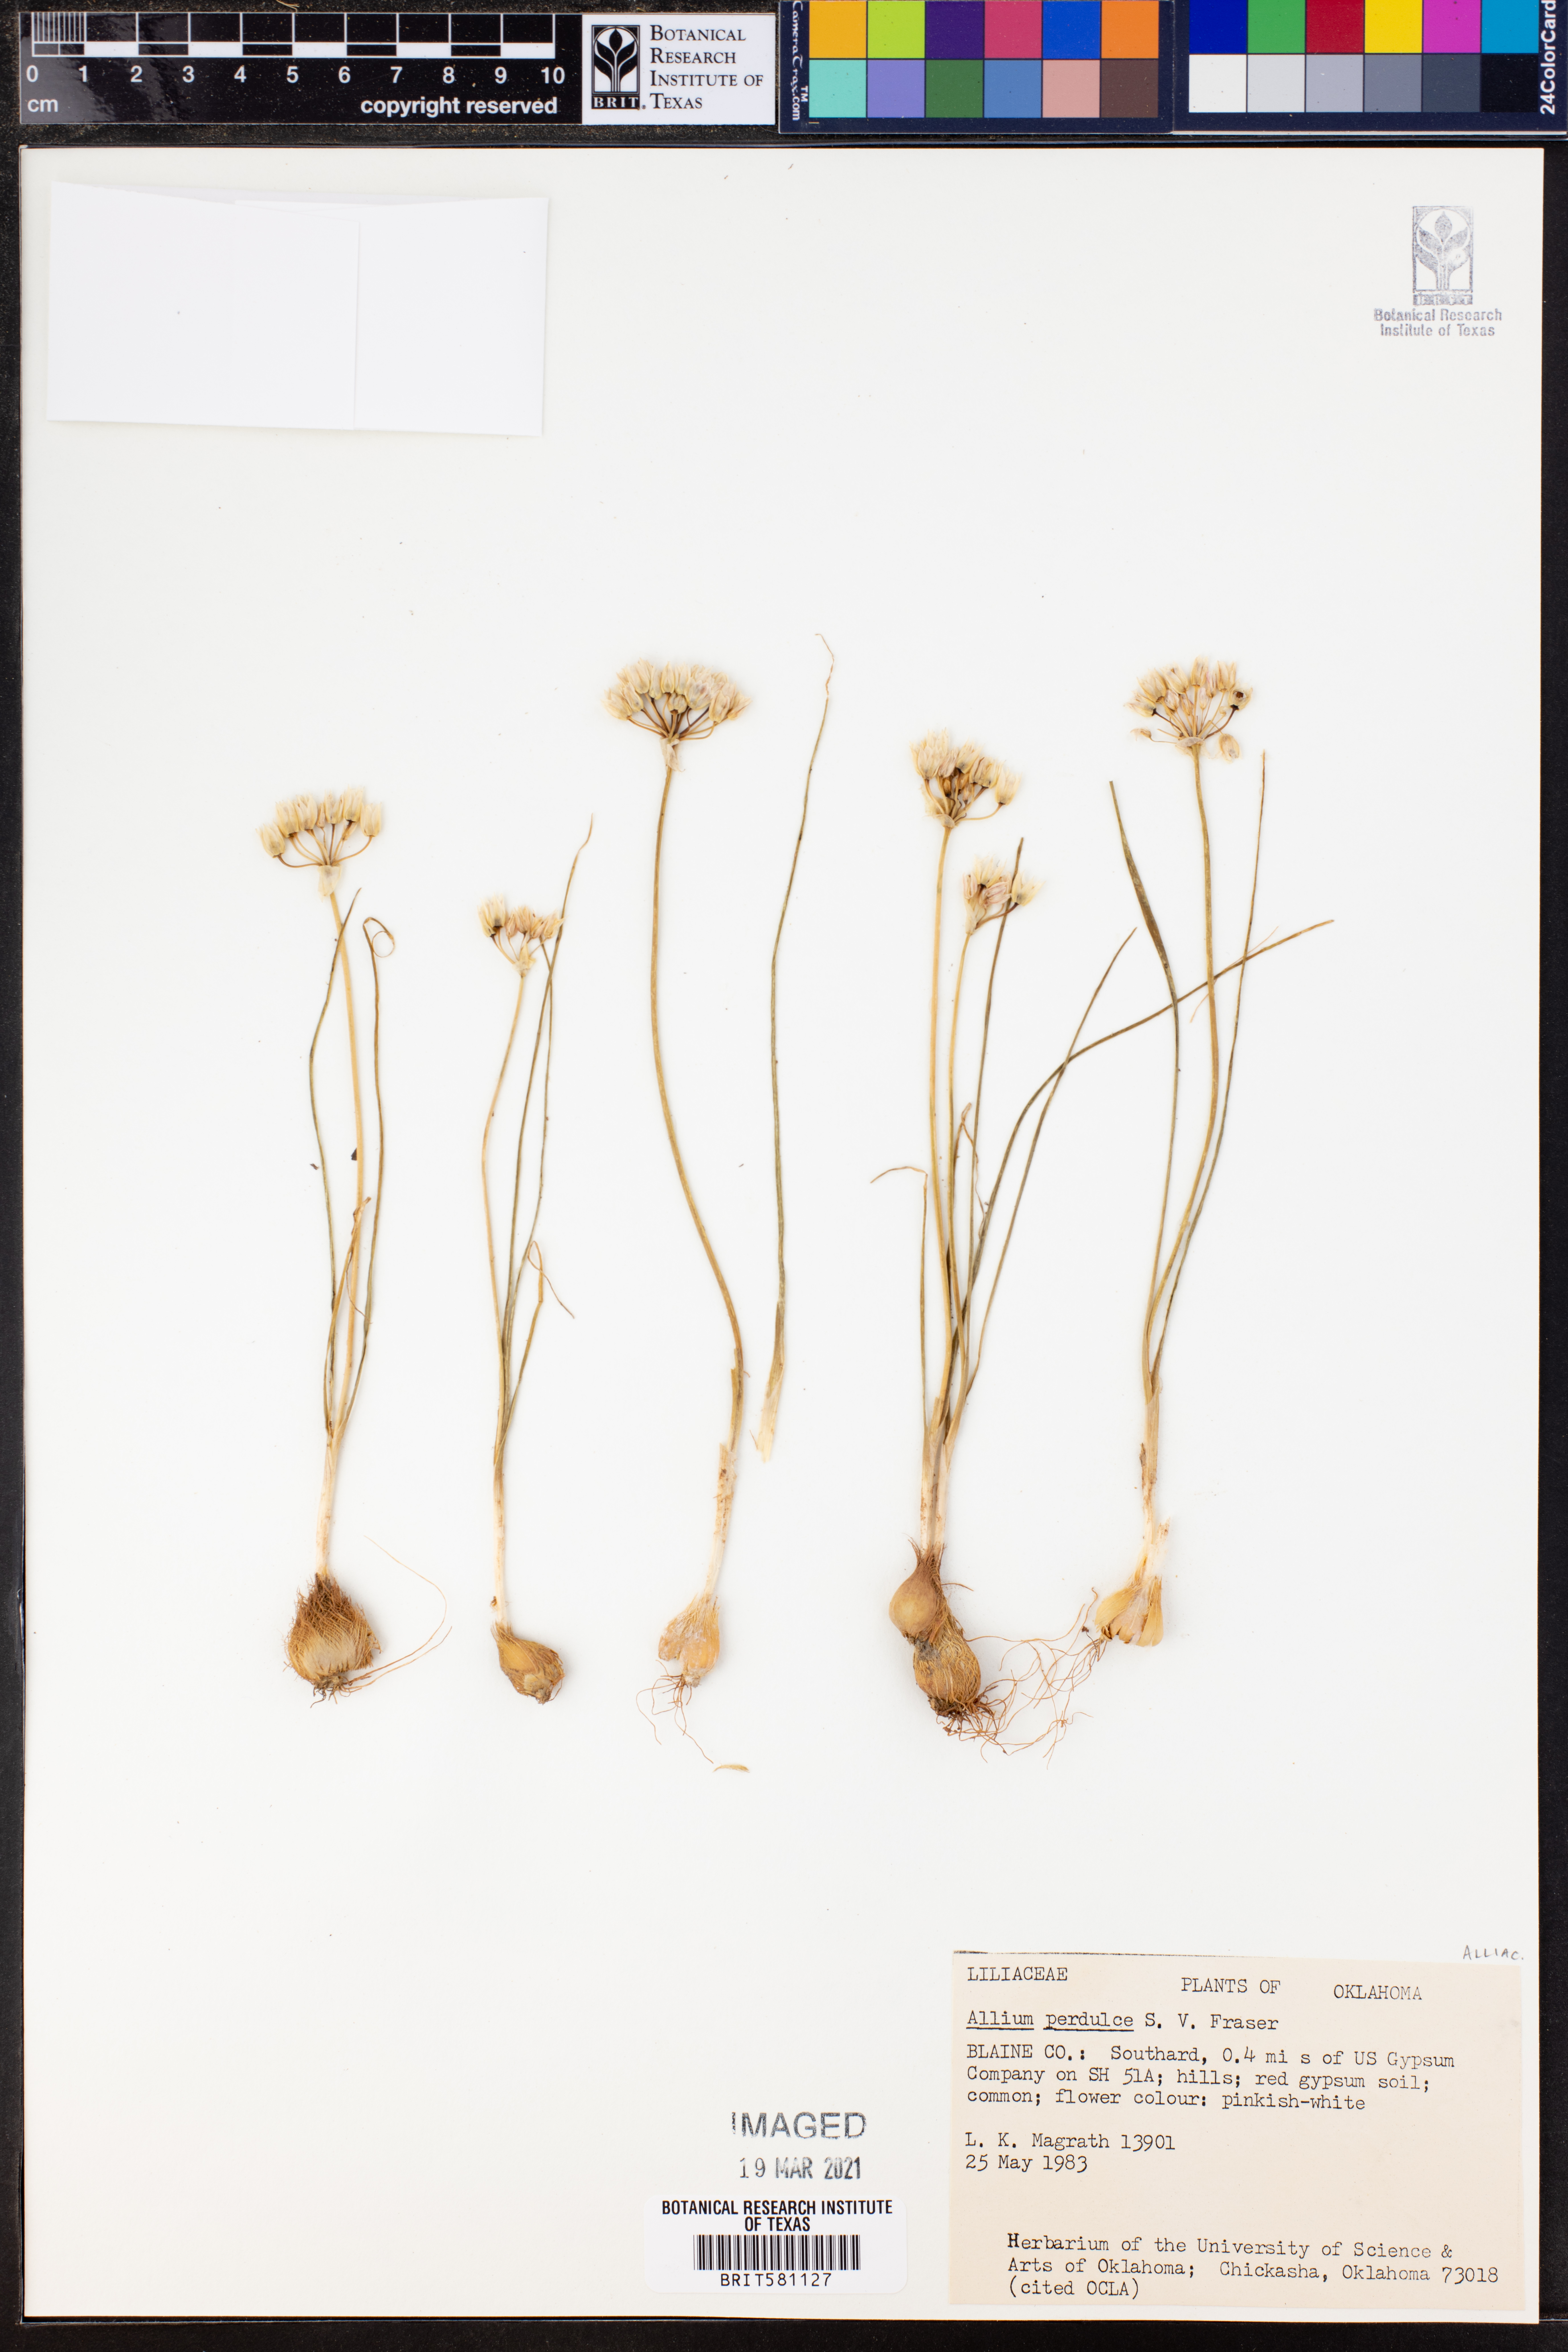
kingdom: Plantae
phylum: Tracheophyta
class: Liliopsida
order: Asparagales
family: Amaryllidaceae
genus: Allium
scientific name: Allium perdulce
